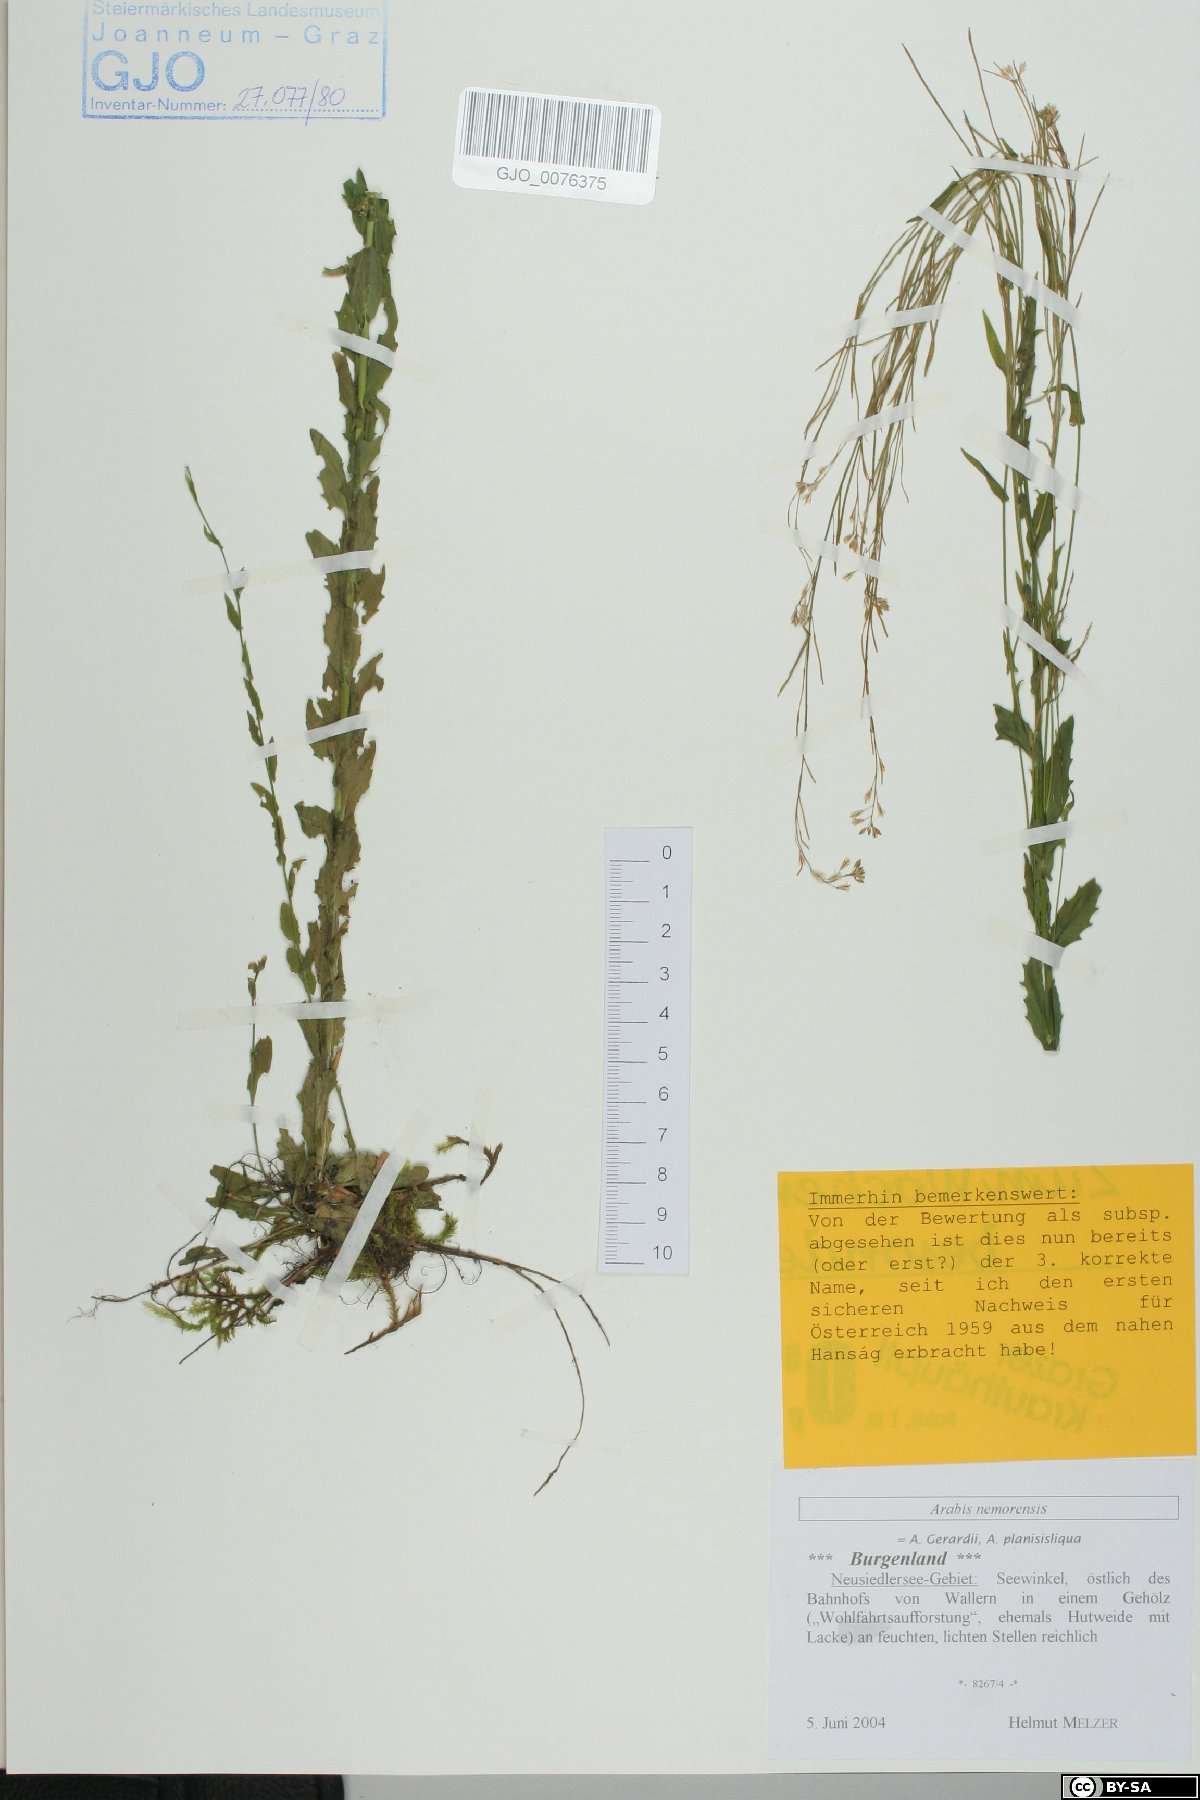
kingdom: Plantae
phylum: Tracheophyta
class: Magnoliopsida
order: Brassicales
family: Brassicaceae
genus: Arabis
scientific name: Arabis planisiliqua
